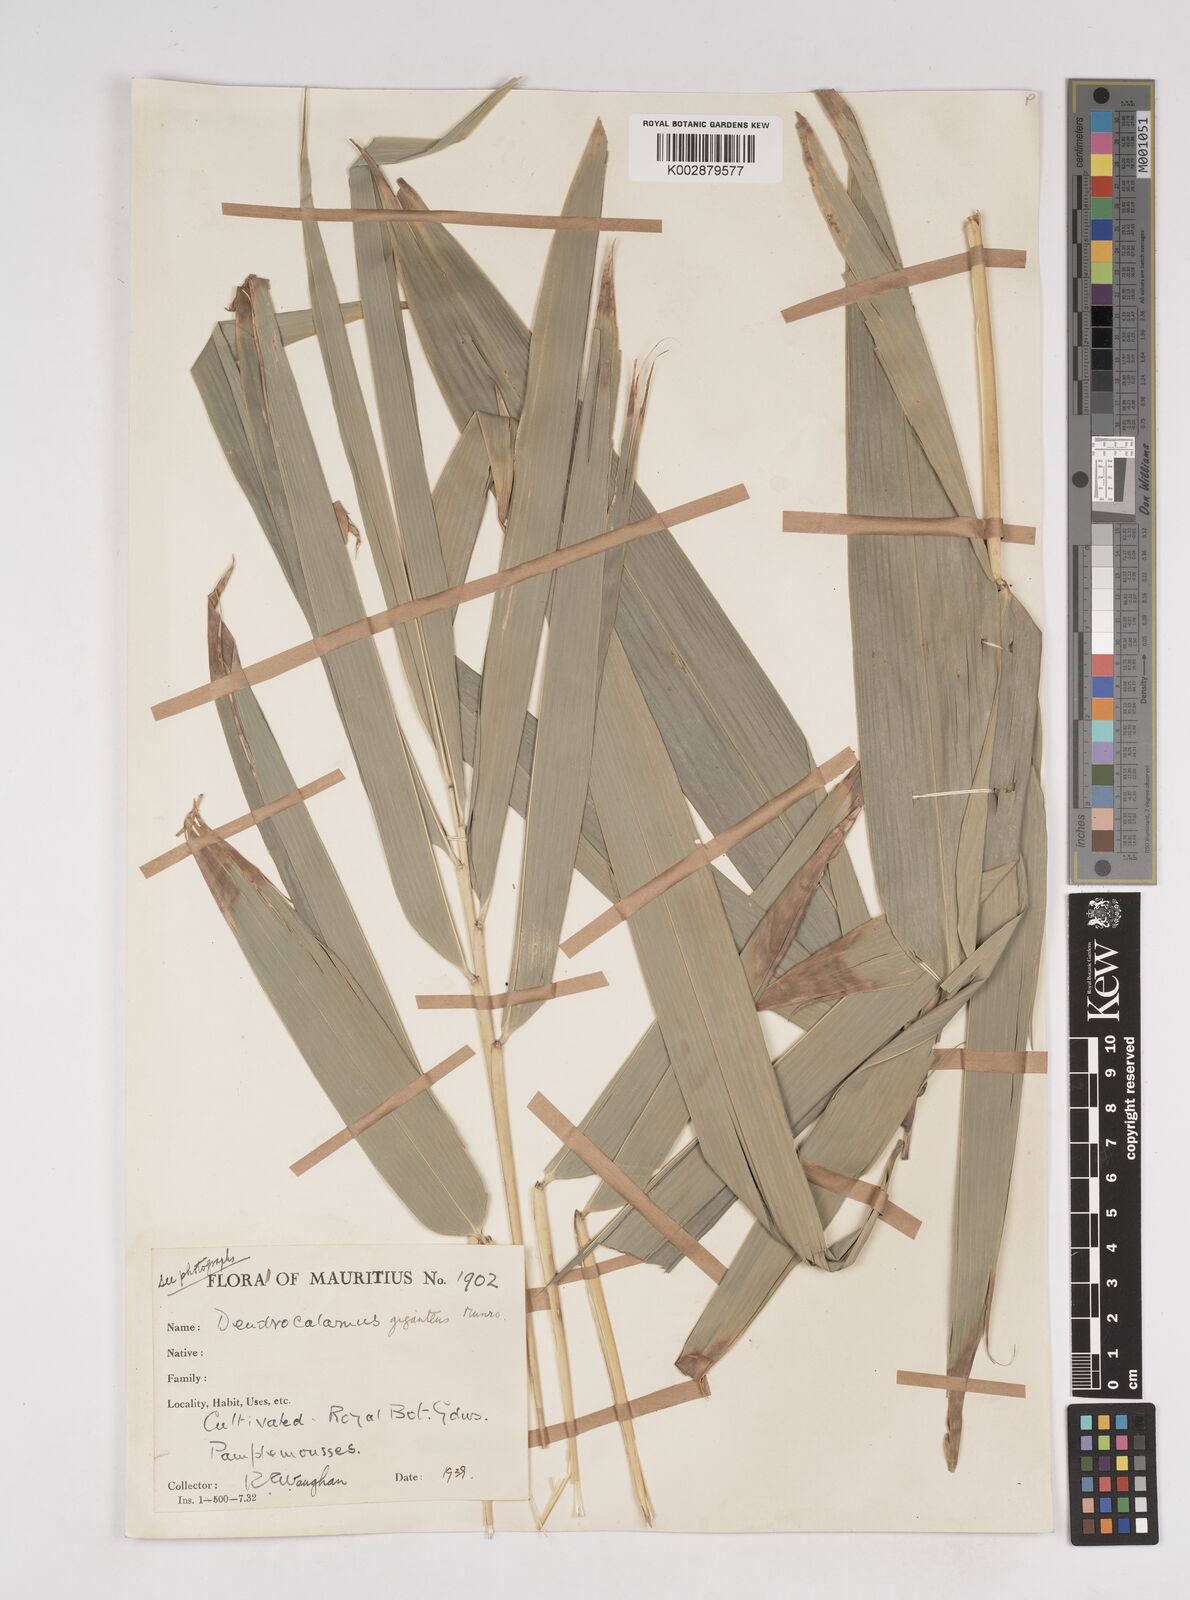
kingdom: Plantae
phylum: Tracheophyta
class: Liliopsida
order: Poales
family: Poaceae
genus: Dendrocalamus
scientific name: Dendrocalamus giganteus
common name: Giant bamboo
